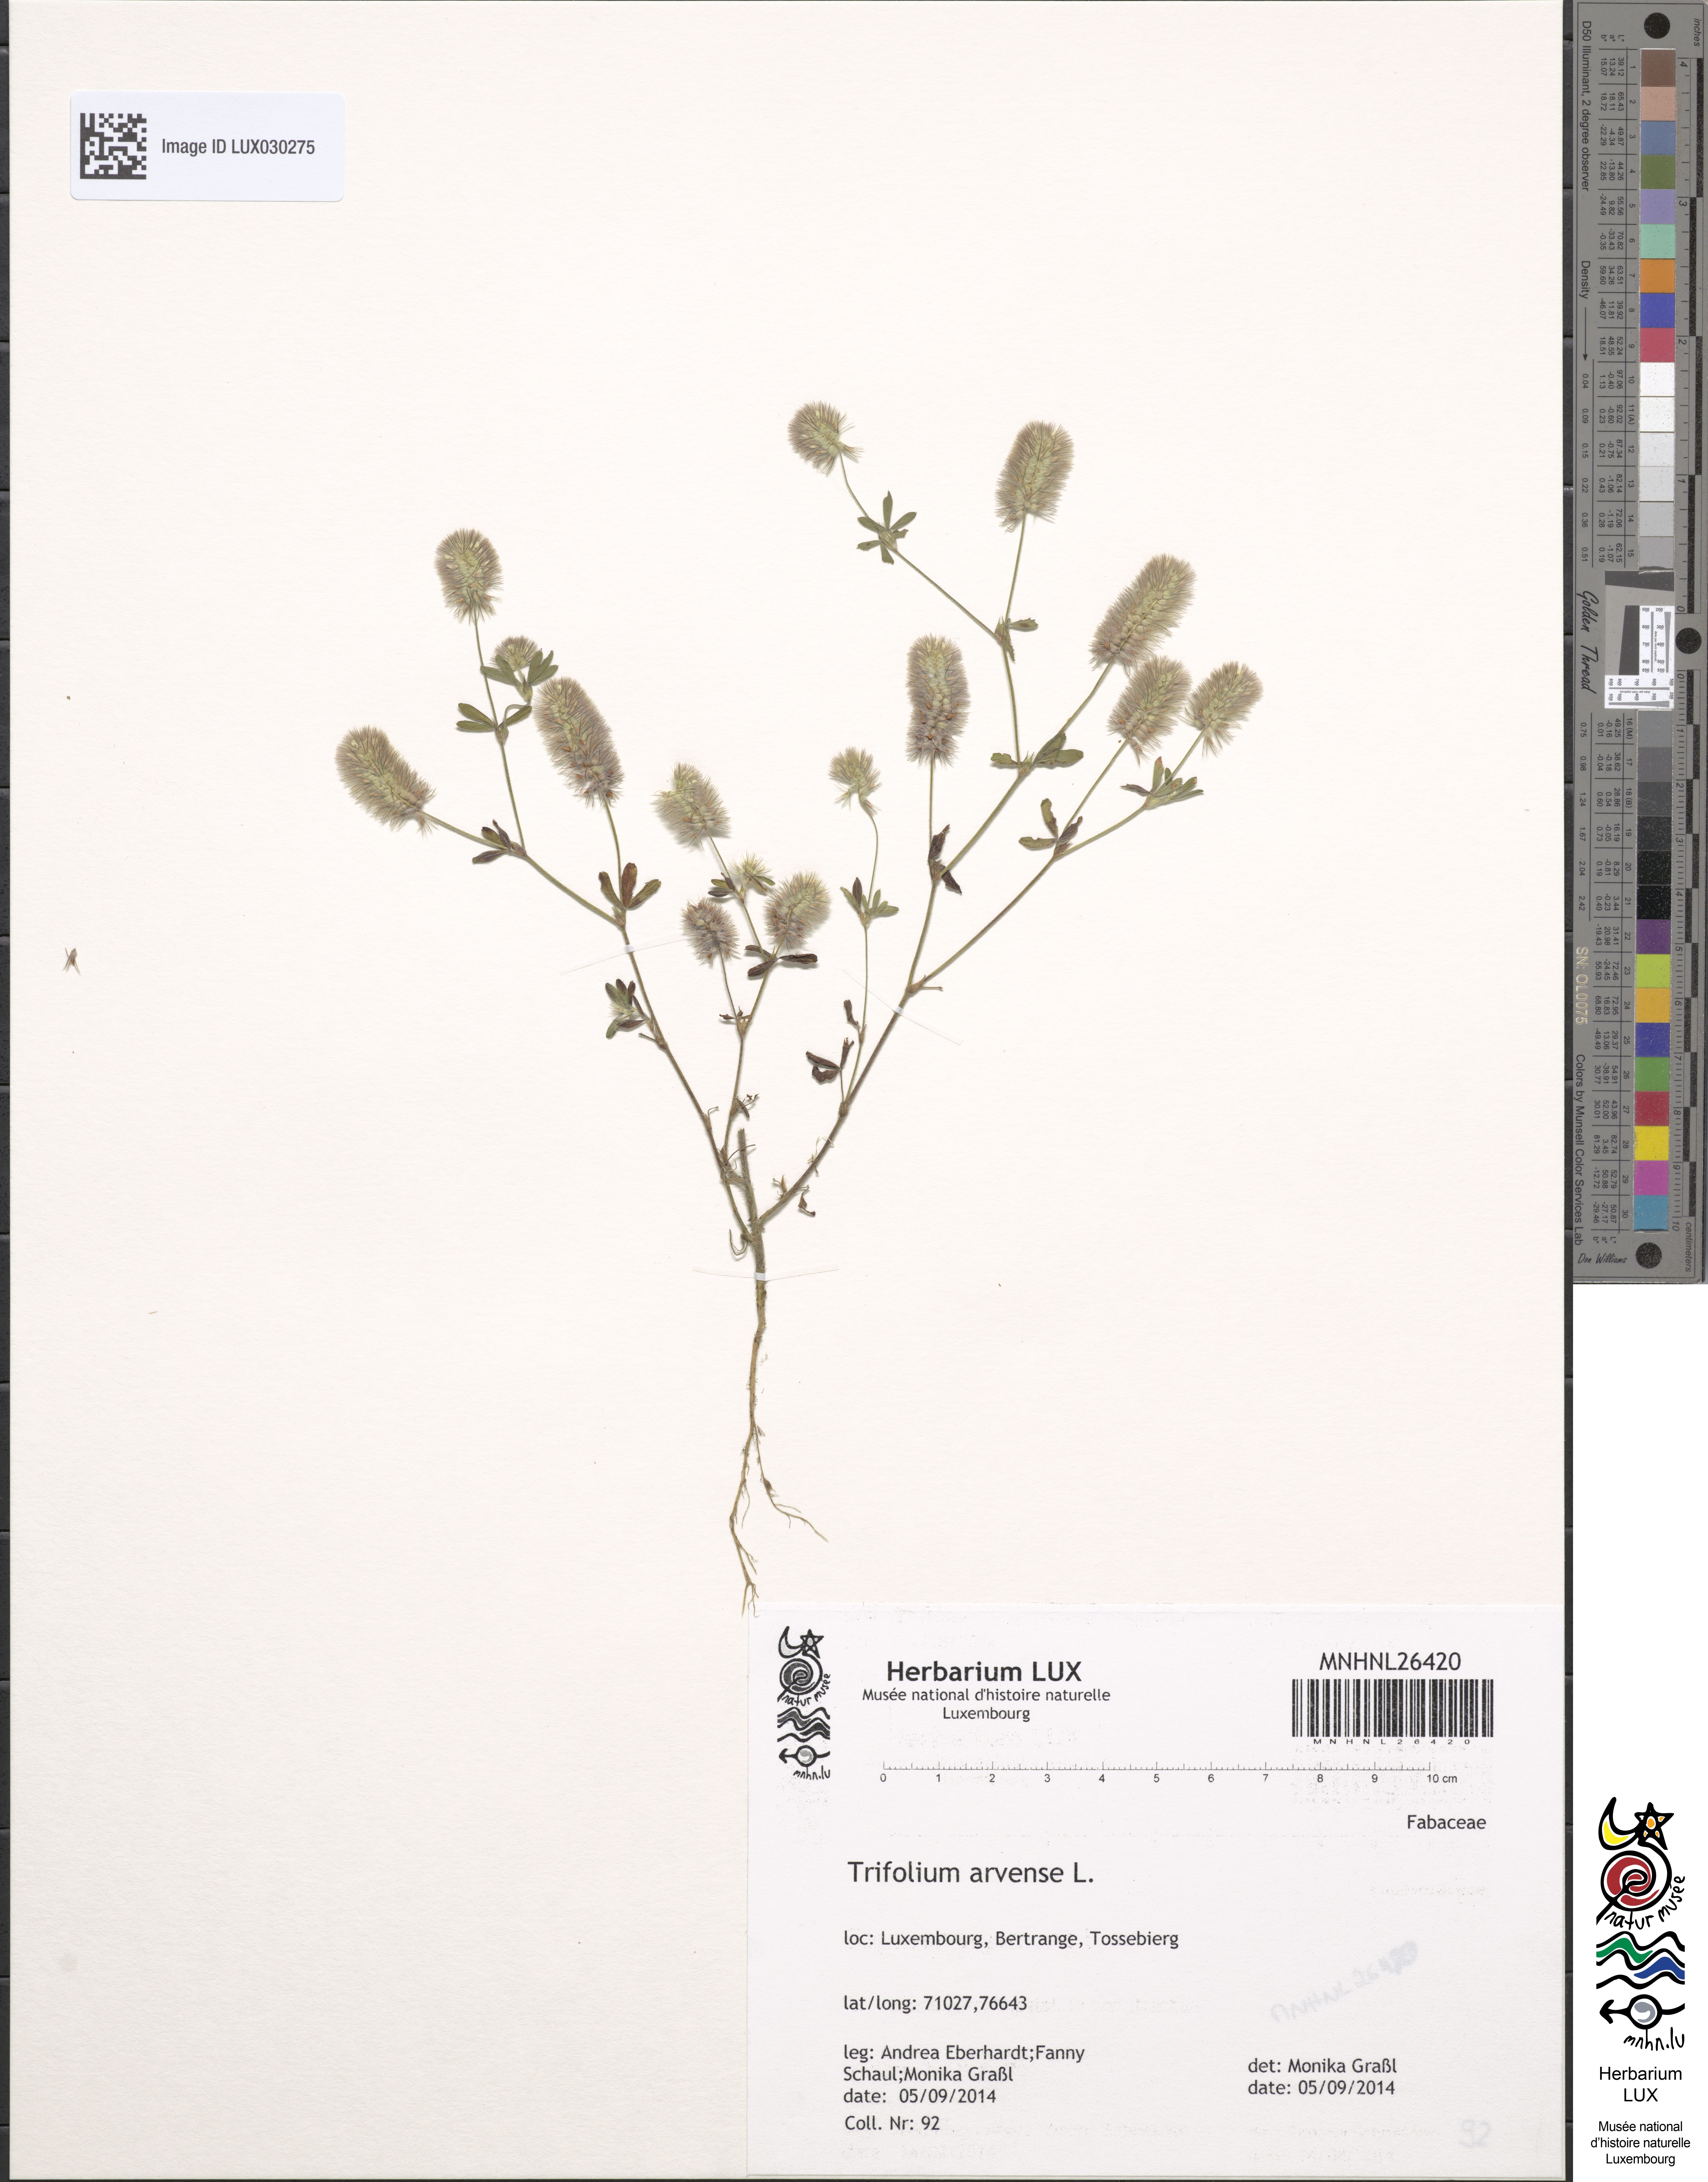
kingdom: Plantae
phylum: Tracheophyta
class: Magnoliopsida
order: Fabales
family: Fabaceae
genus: Trifolium
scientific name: Trifolium arvense
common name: Hare's-foot clover
